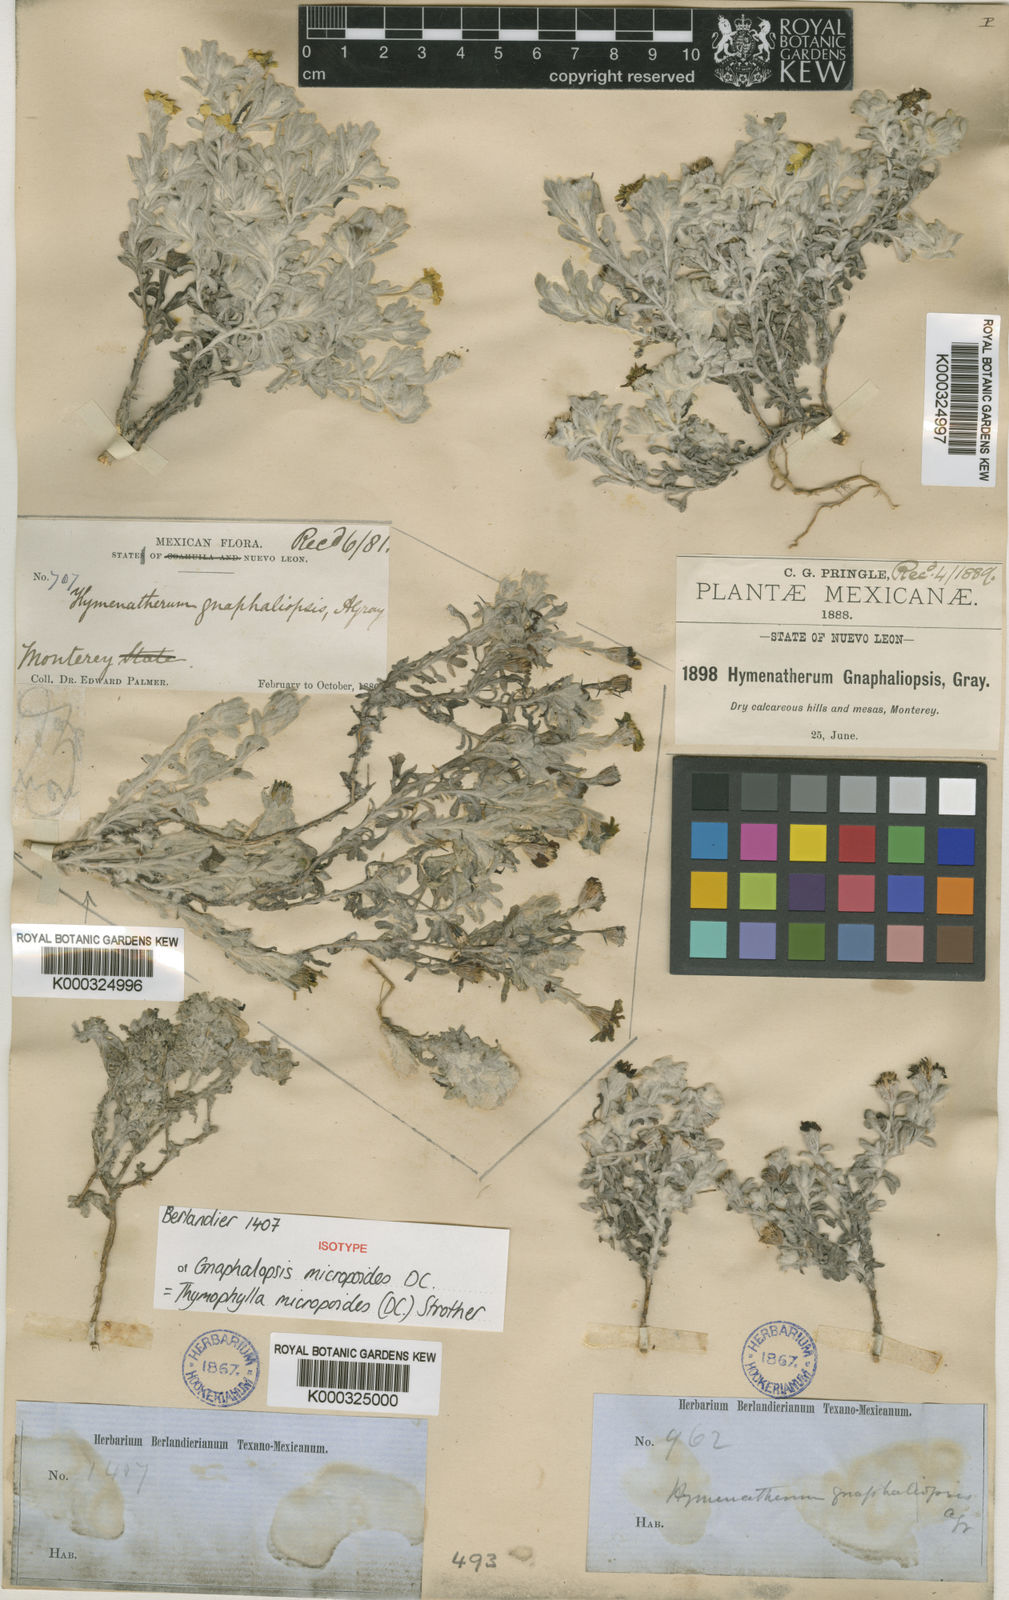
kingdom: Plantae
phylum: Tracheophyta
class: Magnoliopsida
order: Asterales
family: Asteraceae
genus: Thymophylla
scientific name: Thymophylla micropoides
